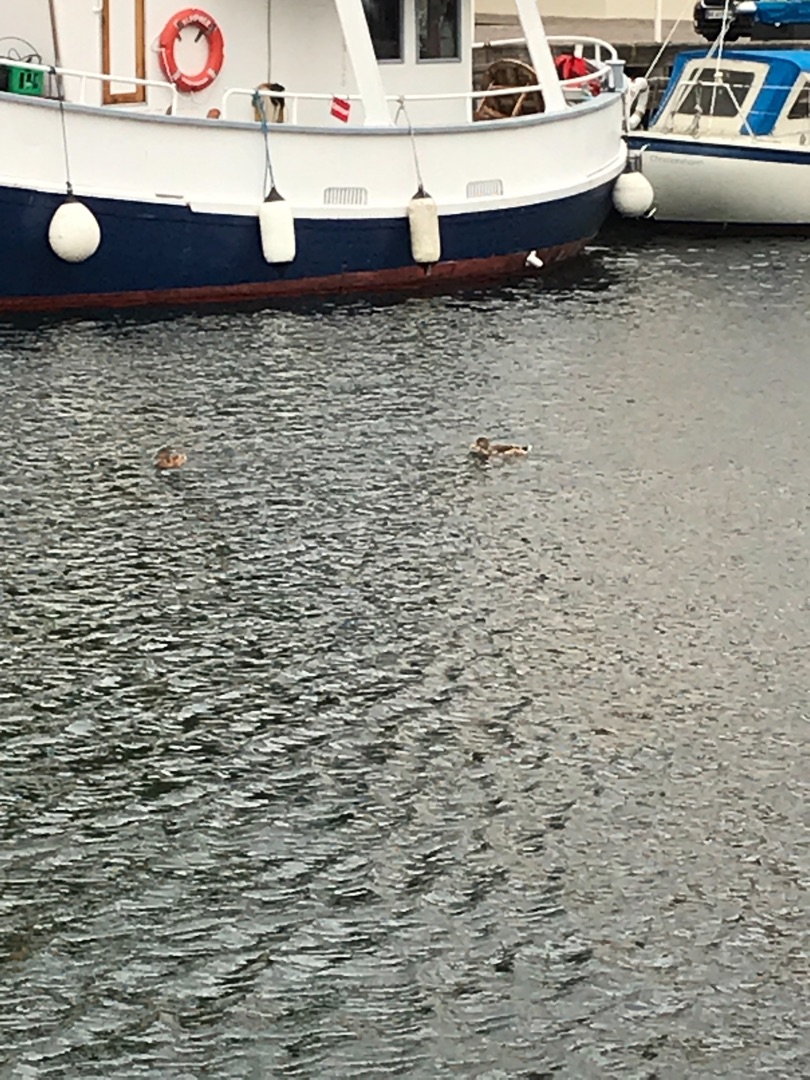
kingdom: Animalia
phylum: Chordata
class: Aves
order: Anseriformes
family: Anatidae
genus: Anas
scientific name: Anas platyrhynchos
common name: Gråand
